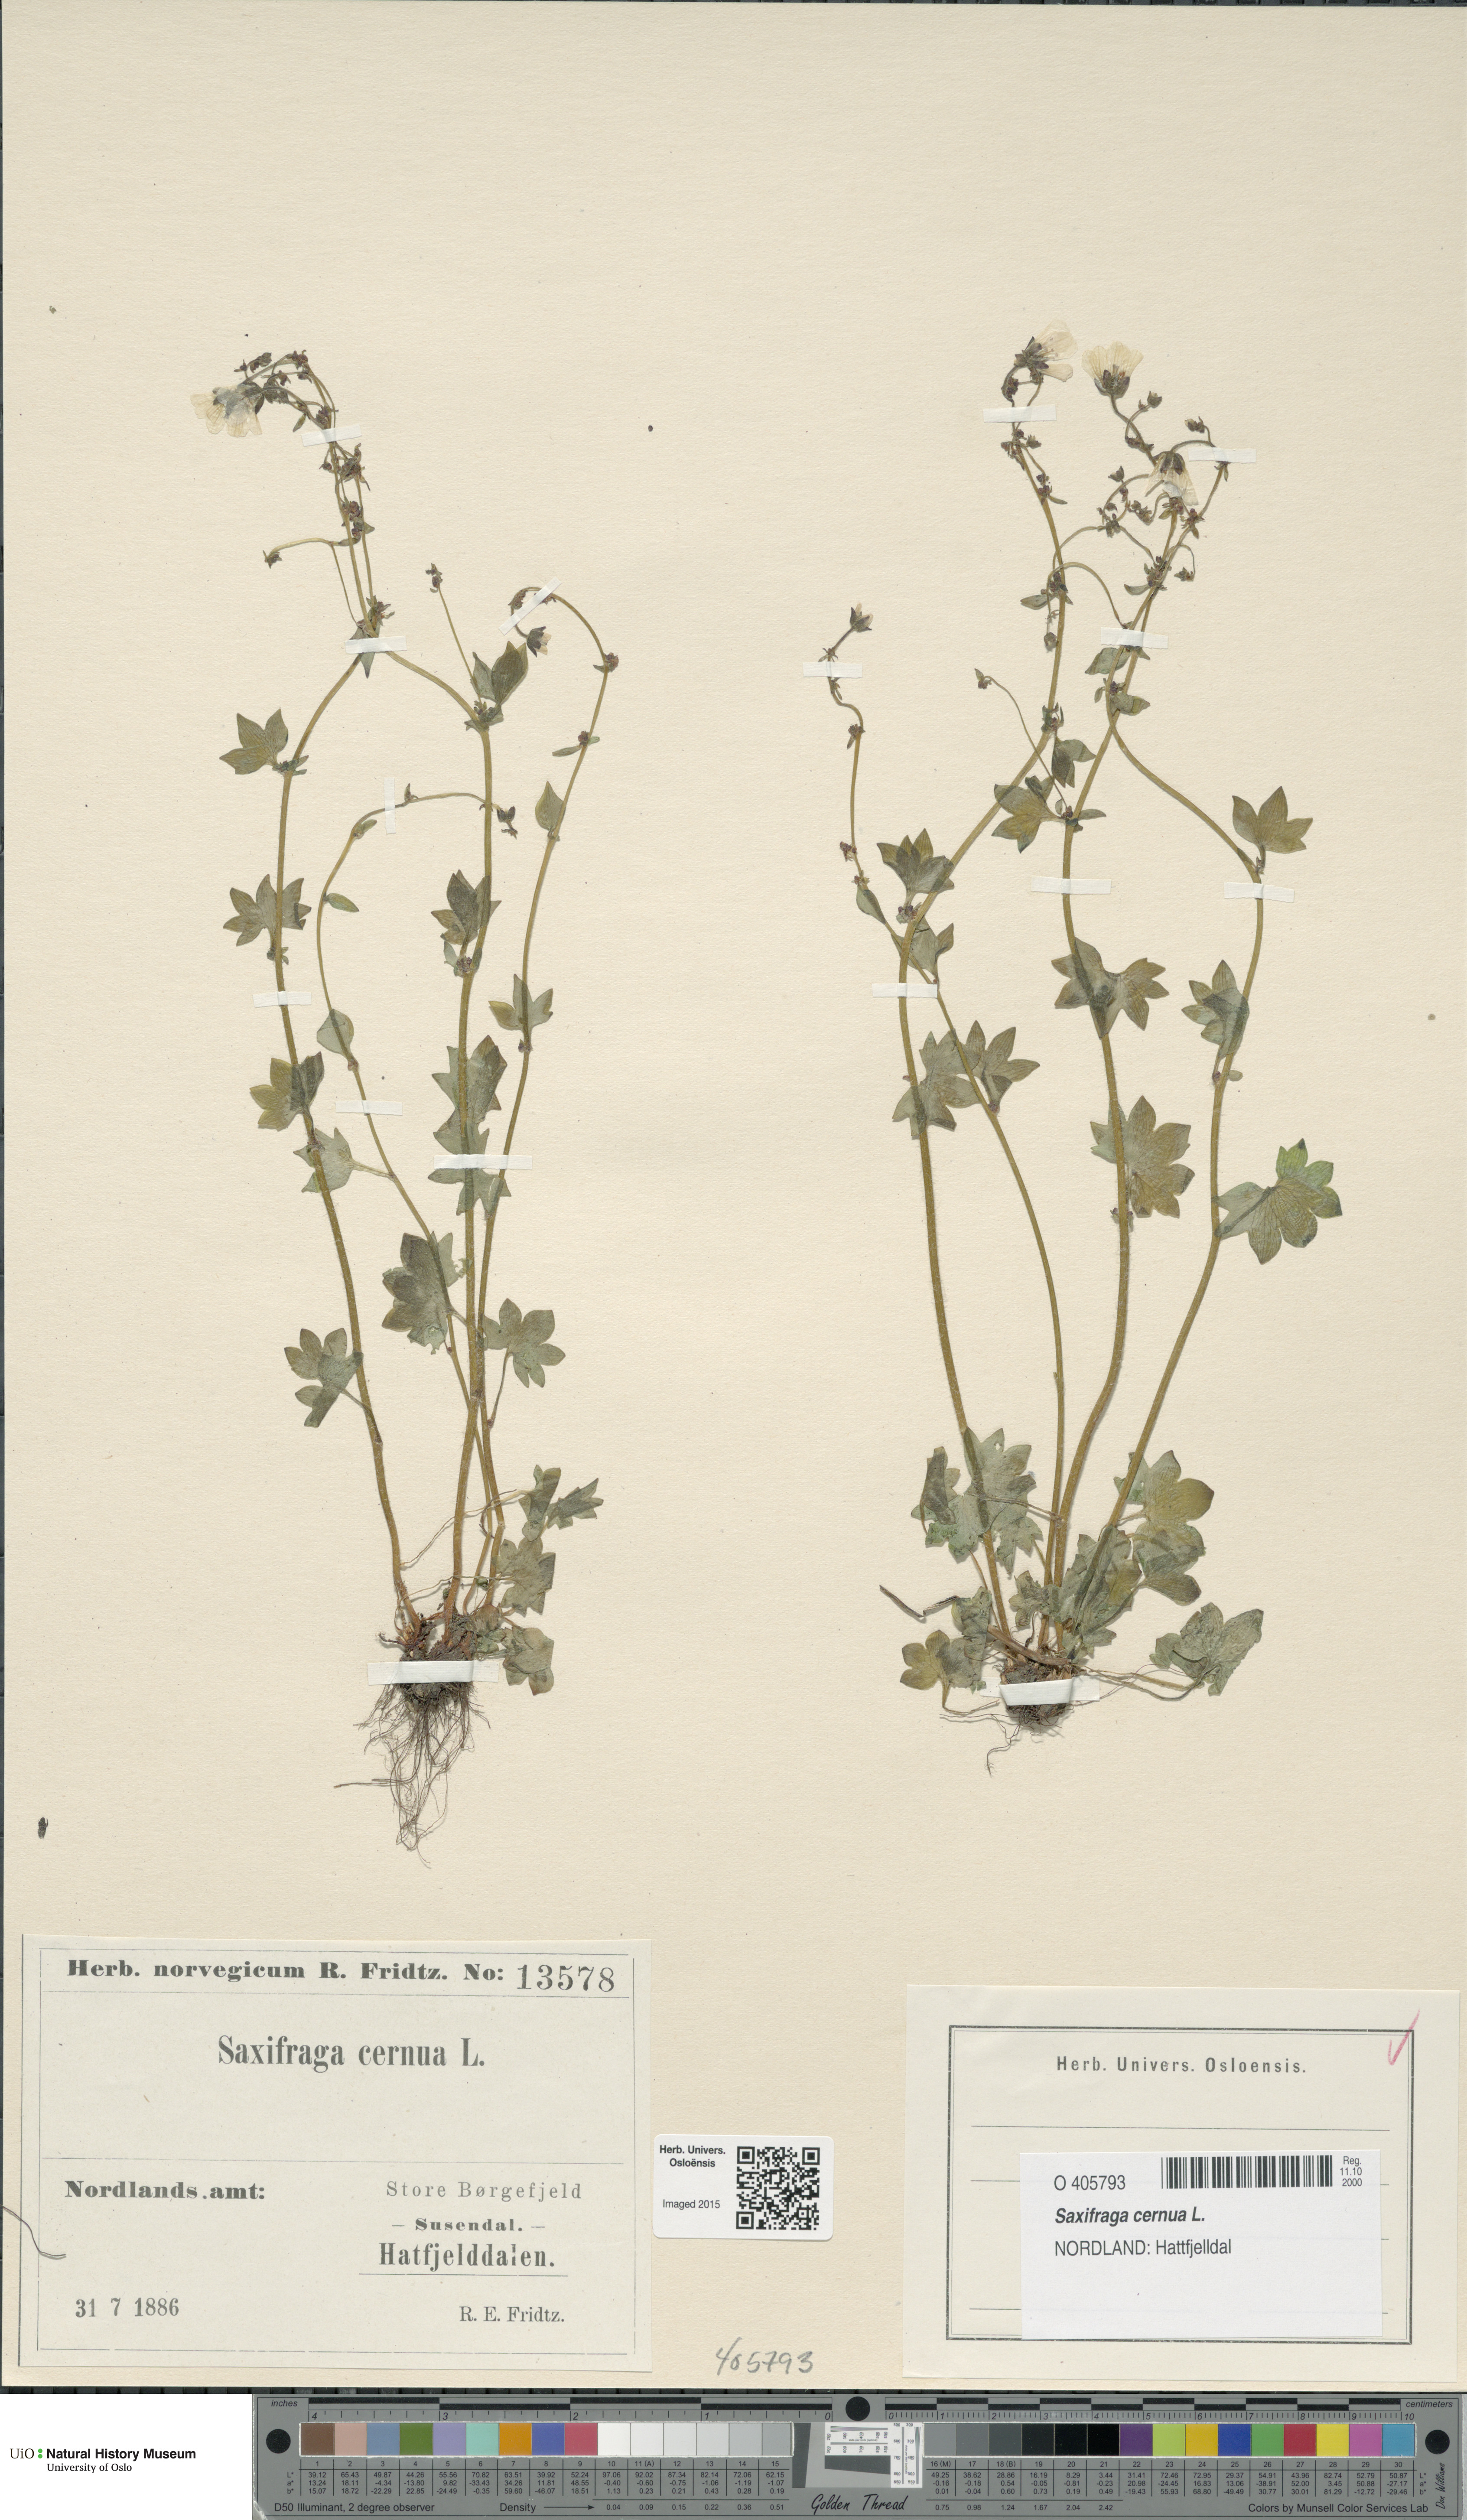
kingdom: Plantae
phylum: Tracheophyta
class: Magnoliopsida
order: Saxifragales
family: Saxifragaceae
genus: Saxifraga
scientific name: Saxifraga cernua
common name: Drooping saxifrage
